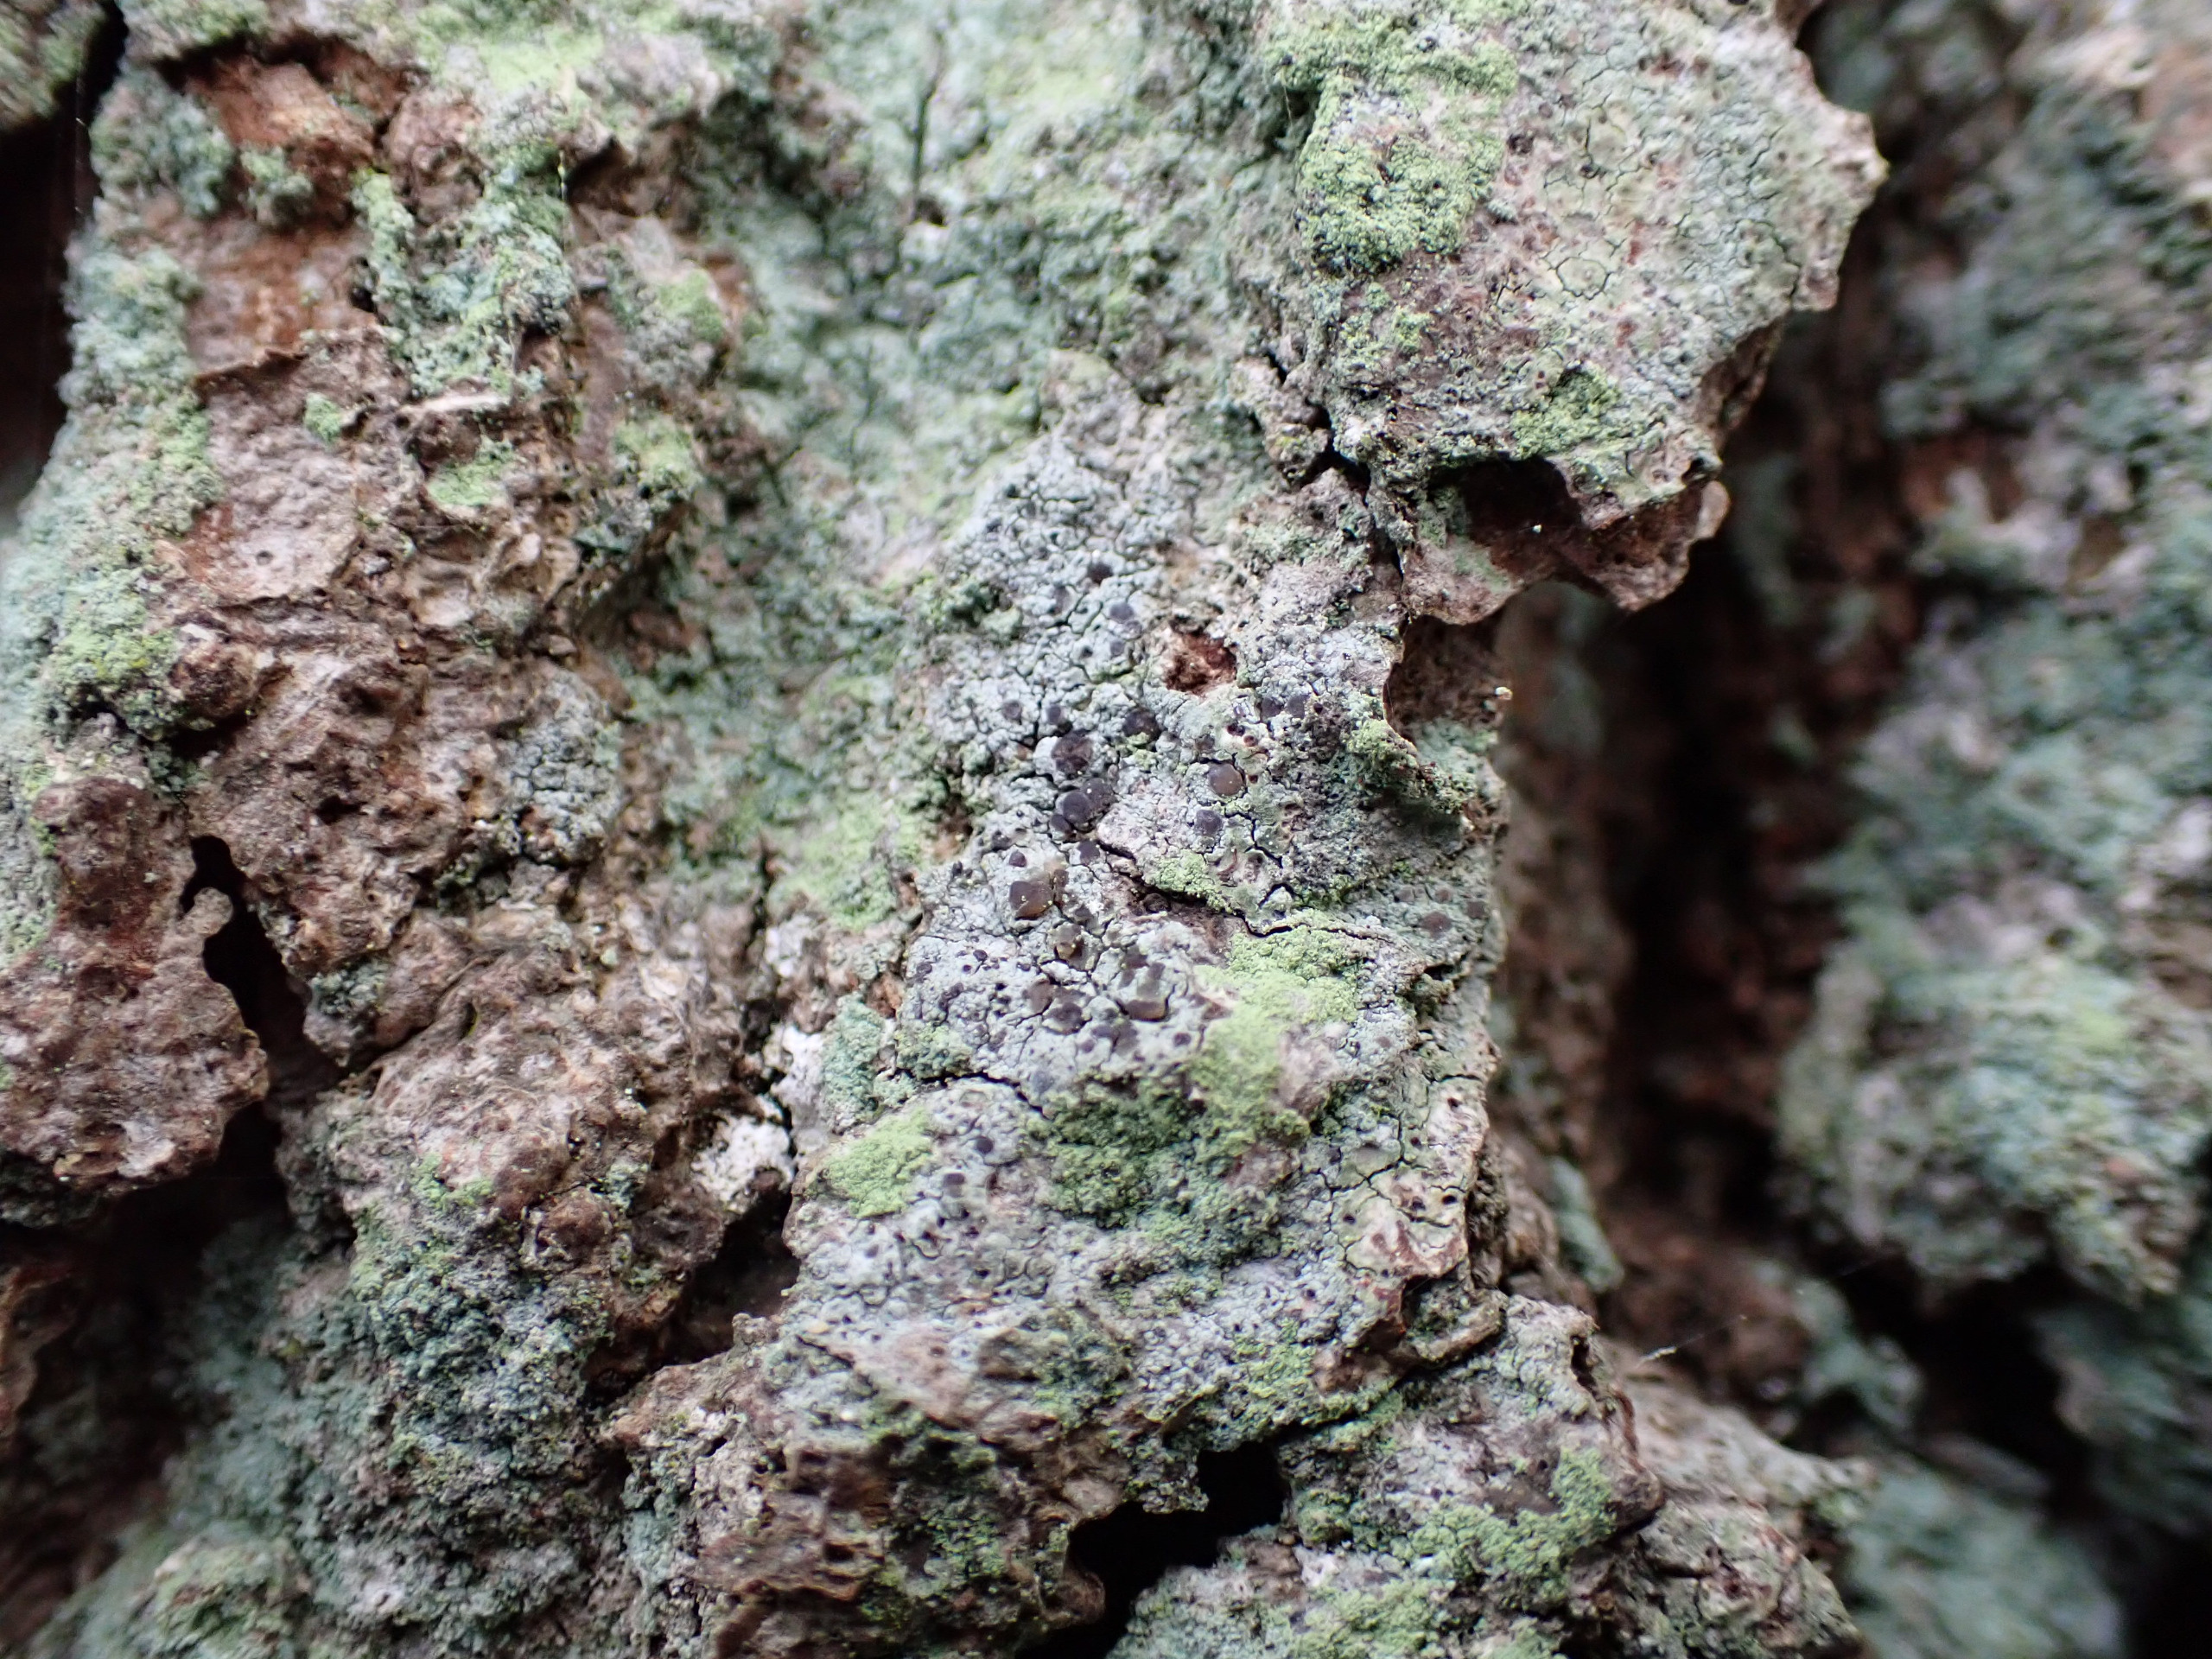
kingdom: Fungi
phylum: Ascomycota
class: Lecanoromycetes
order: Lecanorales
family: Ramalinaceae
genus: Cliostomum
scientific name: Cliostomum griffithii
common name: Trefarvet tensporelav
